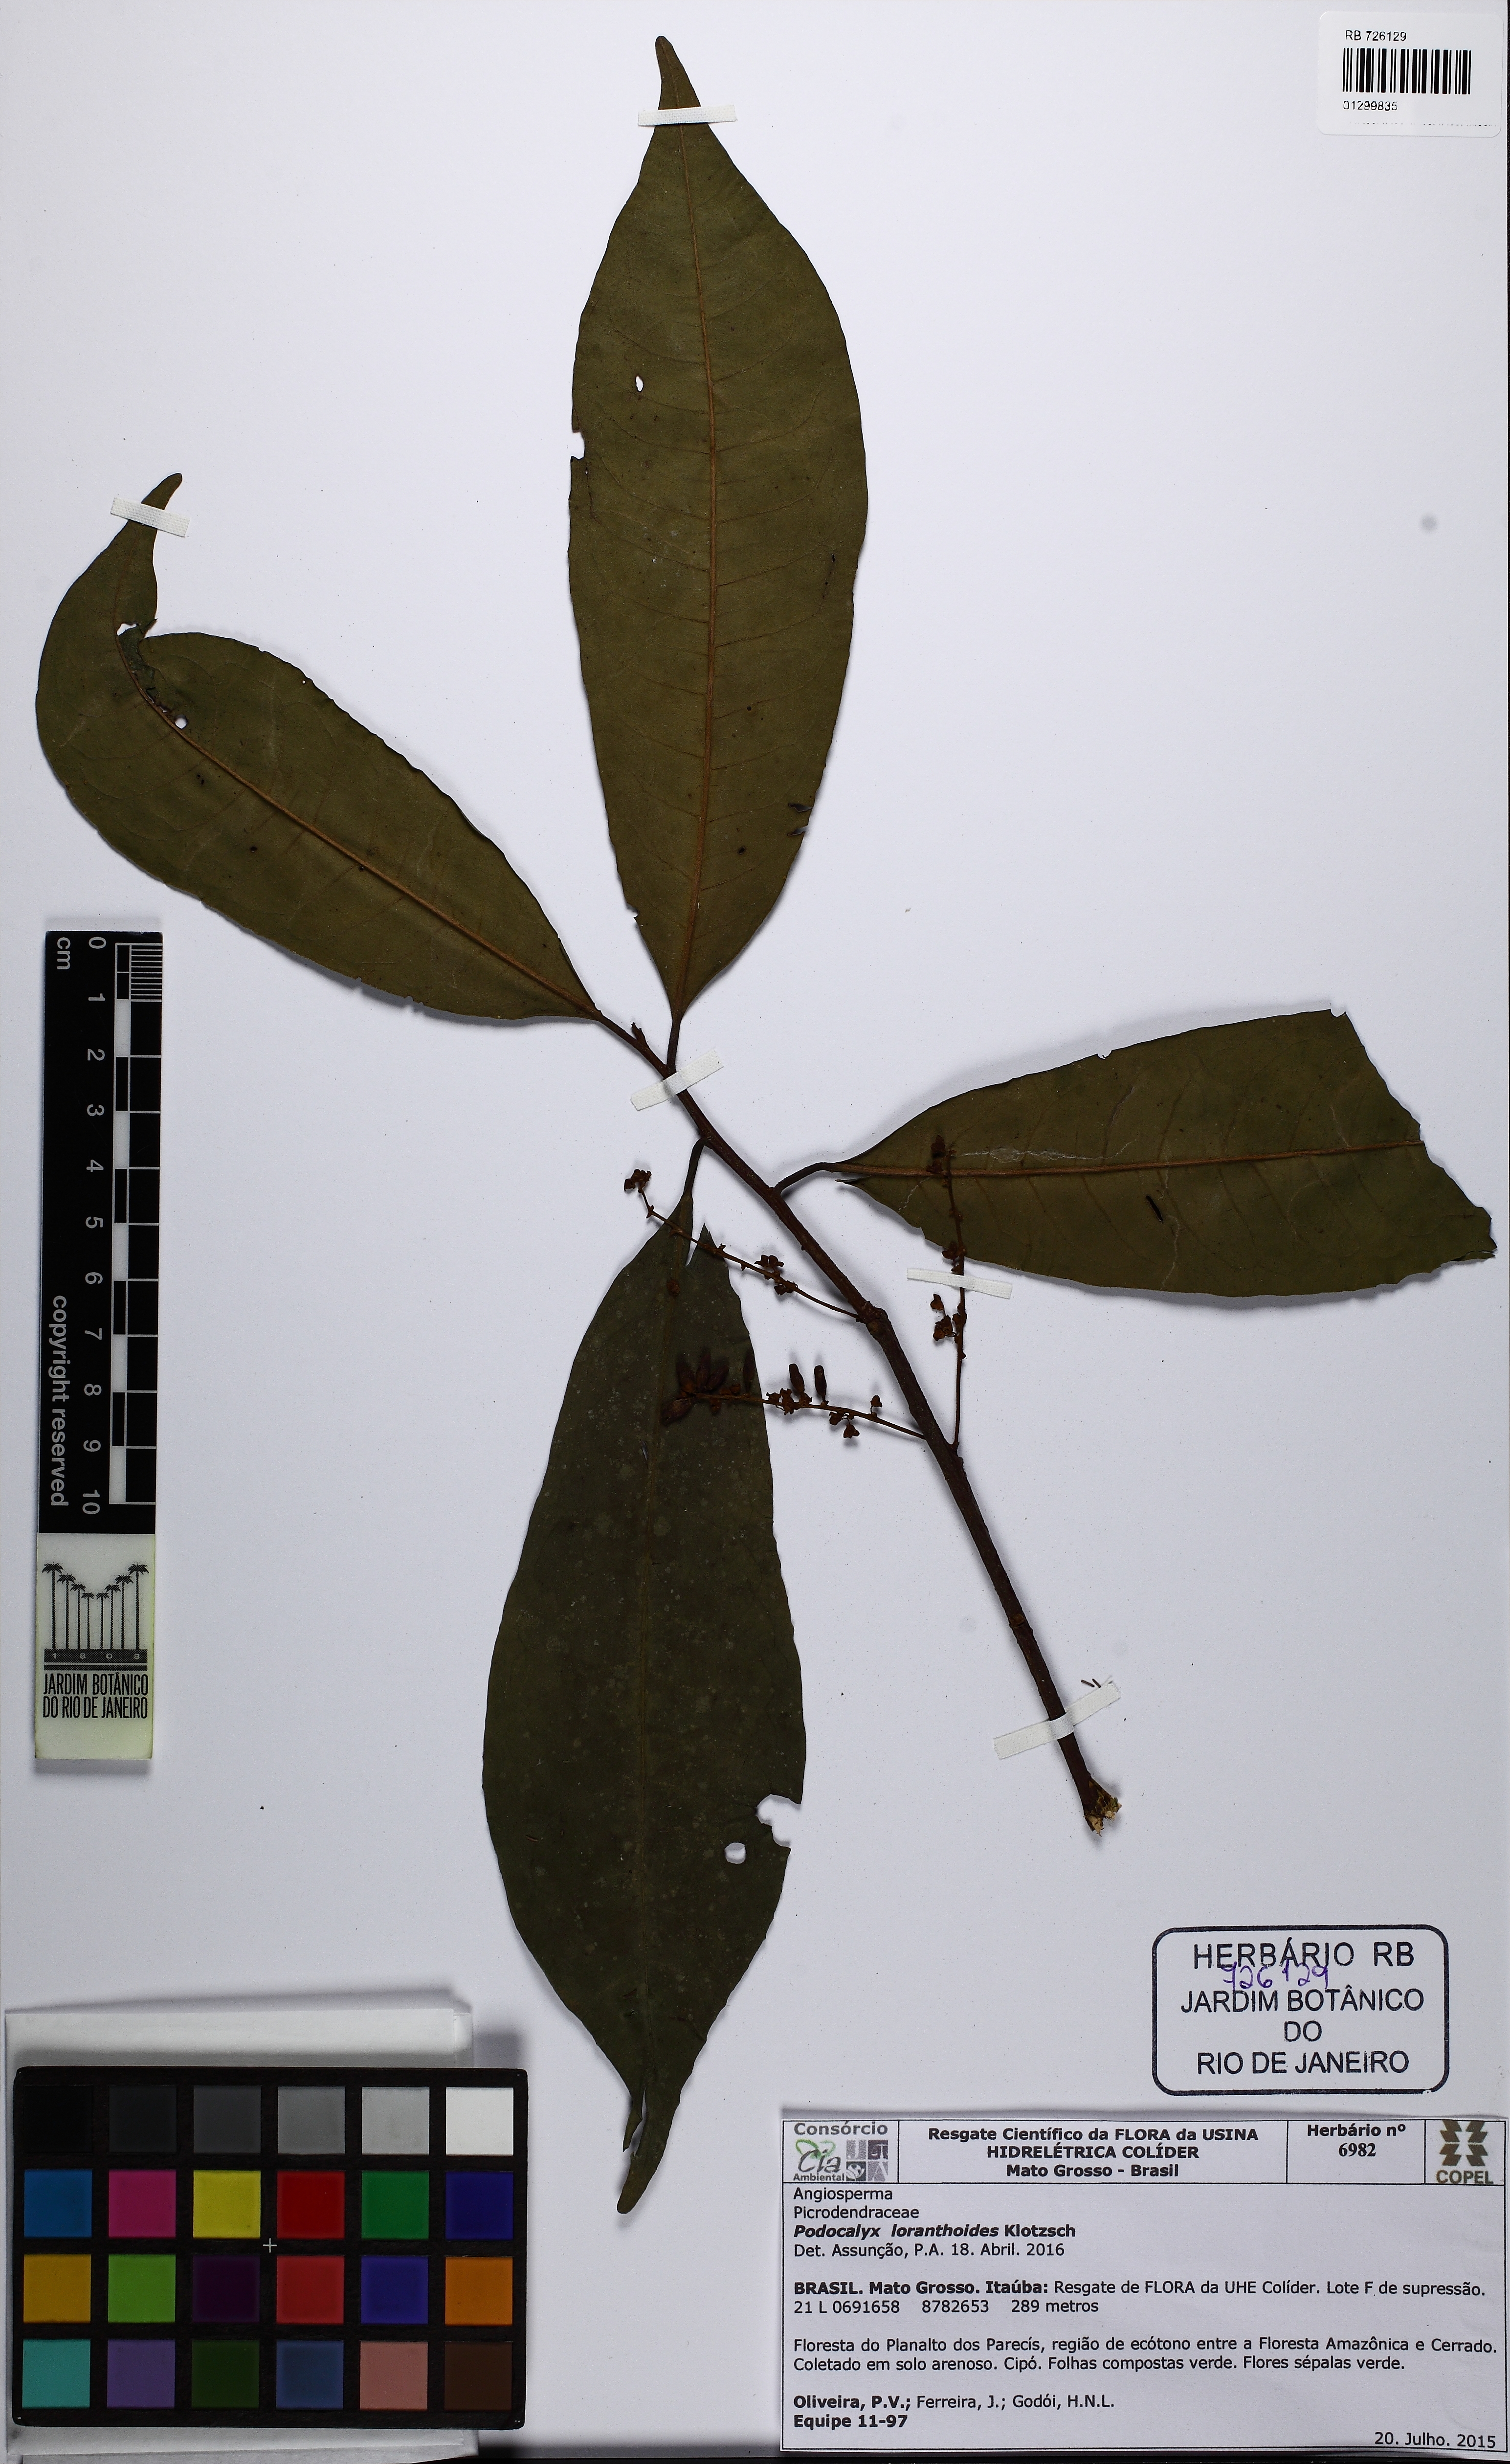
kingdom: Plantae
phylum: Tracheophyta
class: Magnoliopsida
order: Malpighiales
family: Picrodendraceae
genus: Podocalyx
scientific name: Podocalyx loranthoides
